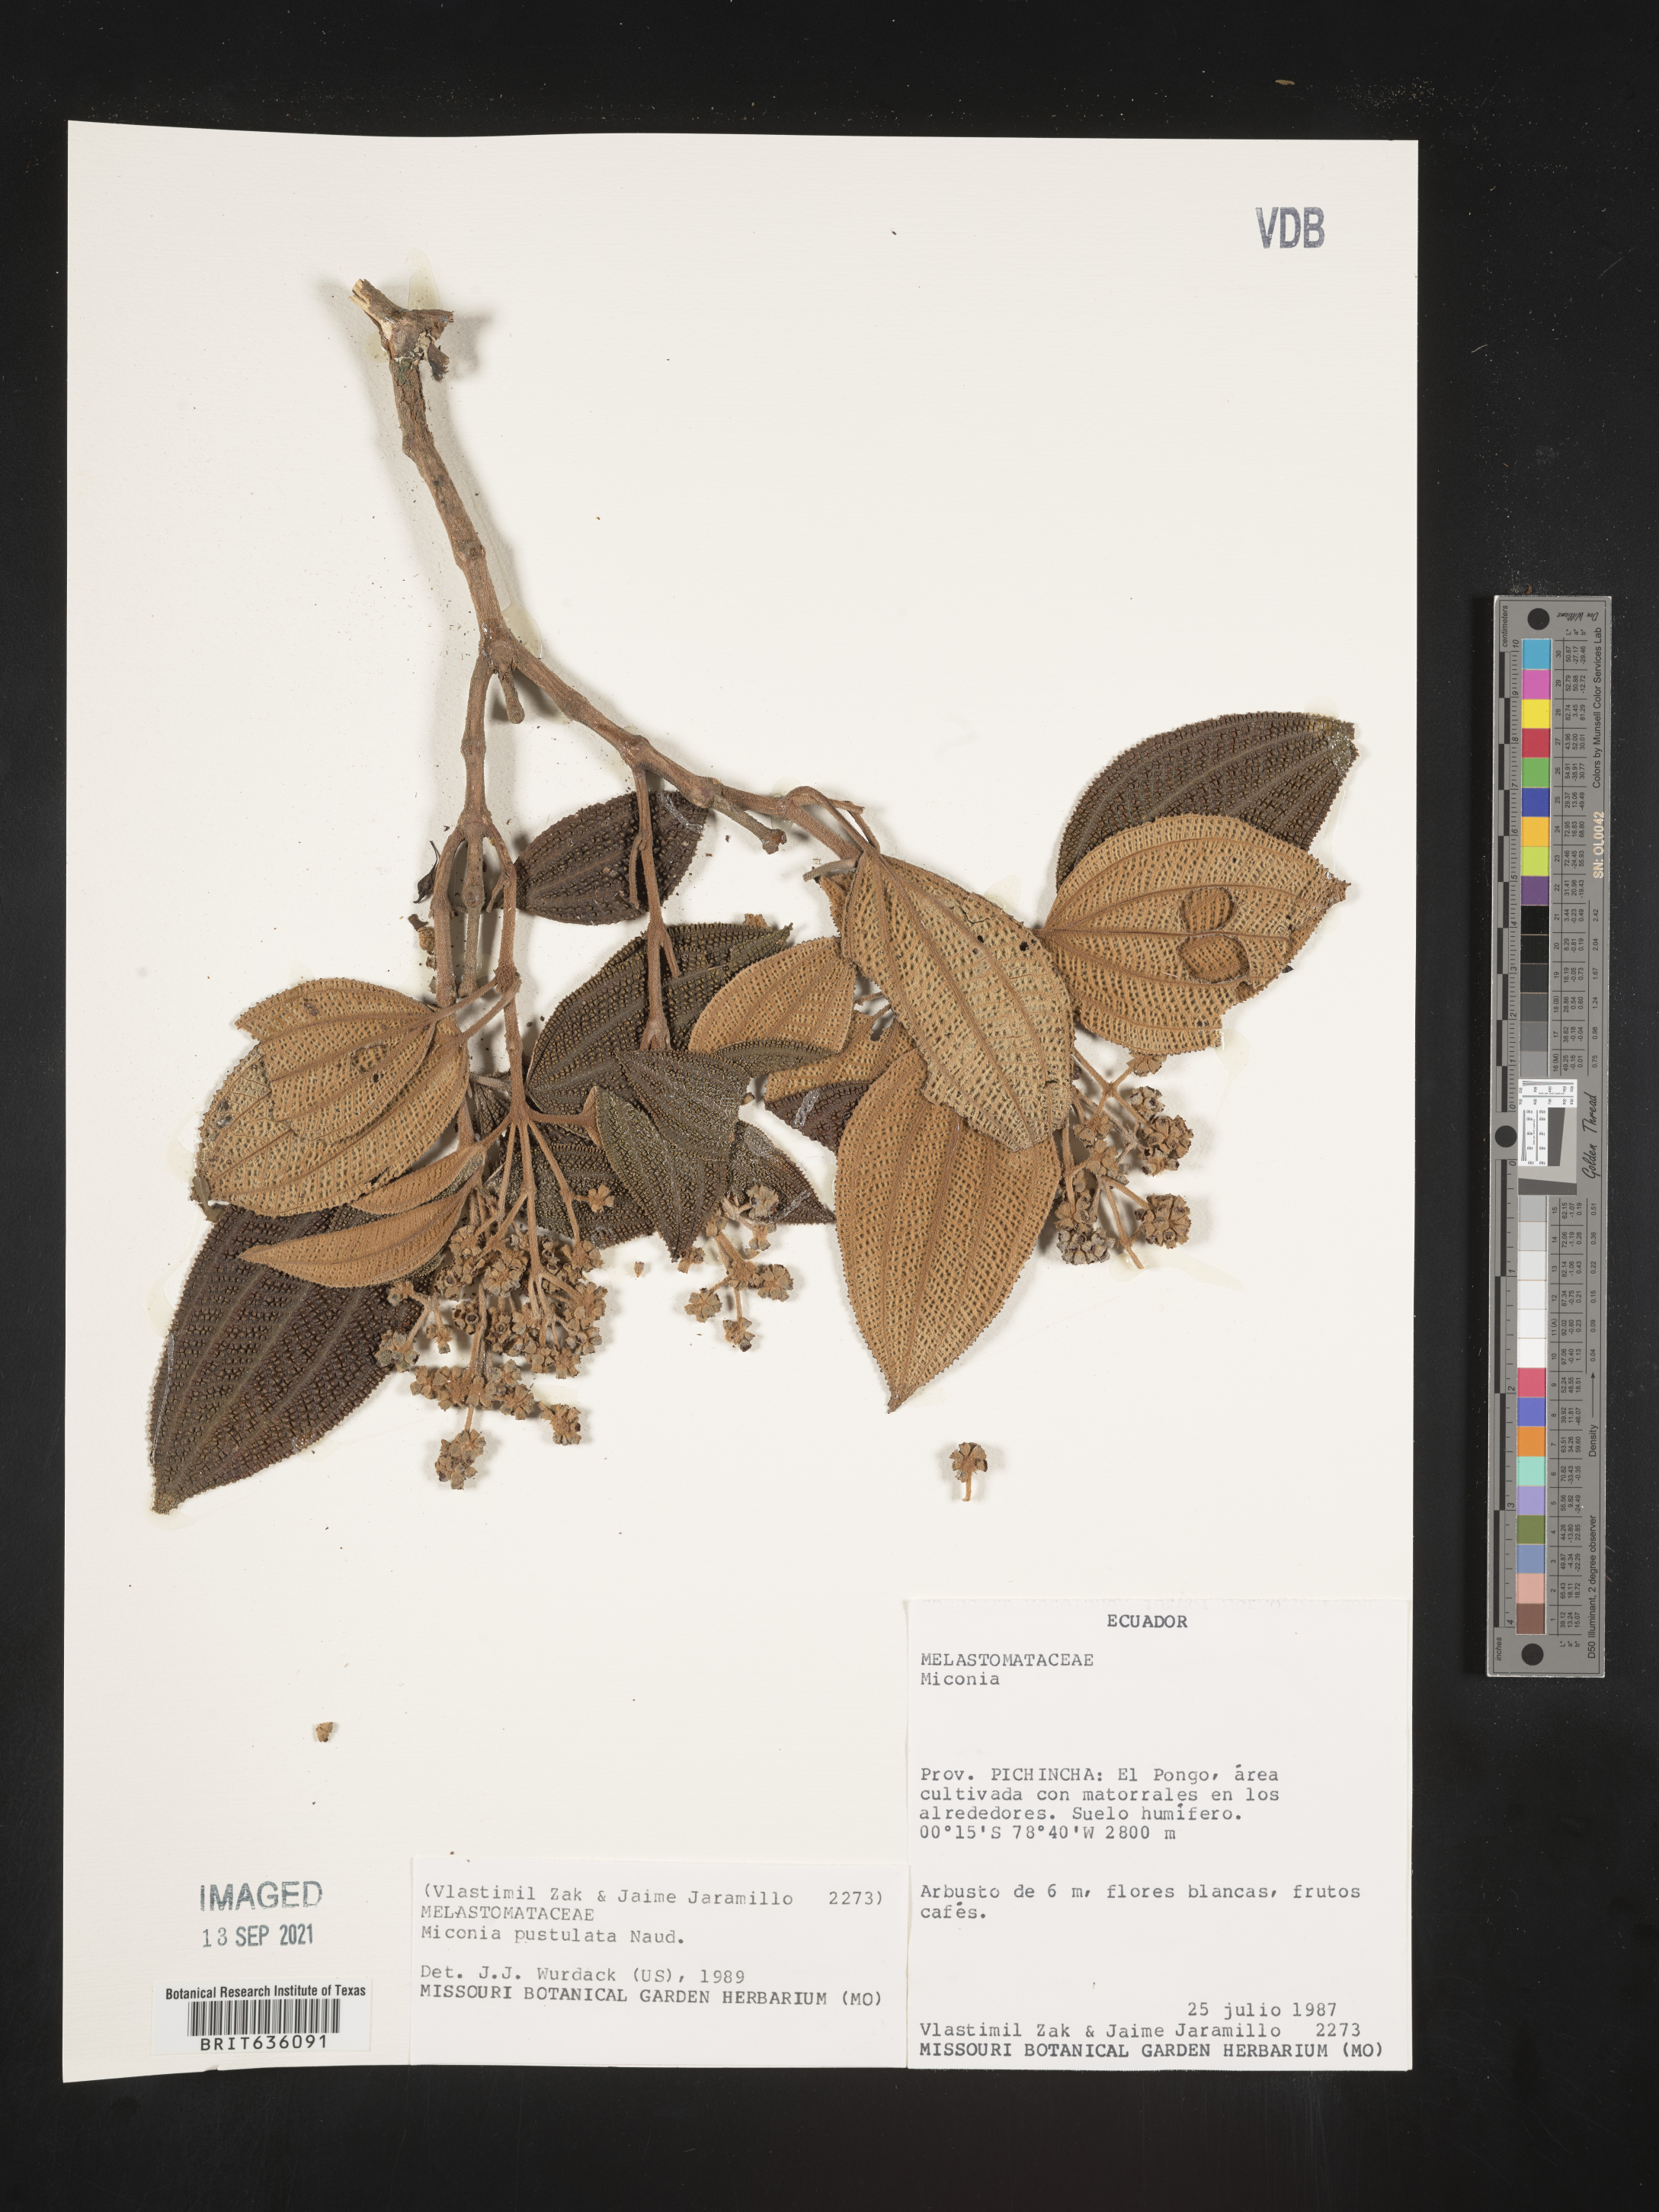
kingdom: Plantae
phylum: Tracheophyta
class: Magnoliopsida
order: Myrtales
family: Melastomataceae
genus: Miconia
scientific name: Miconia
